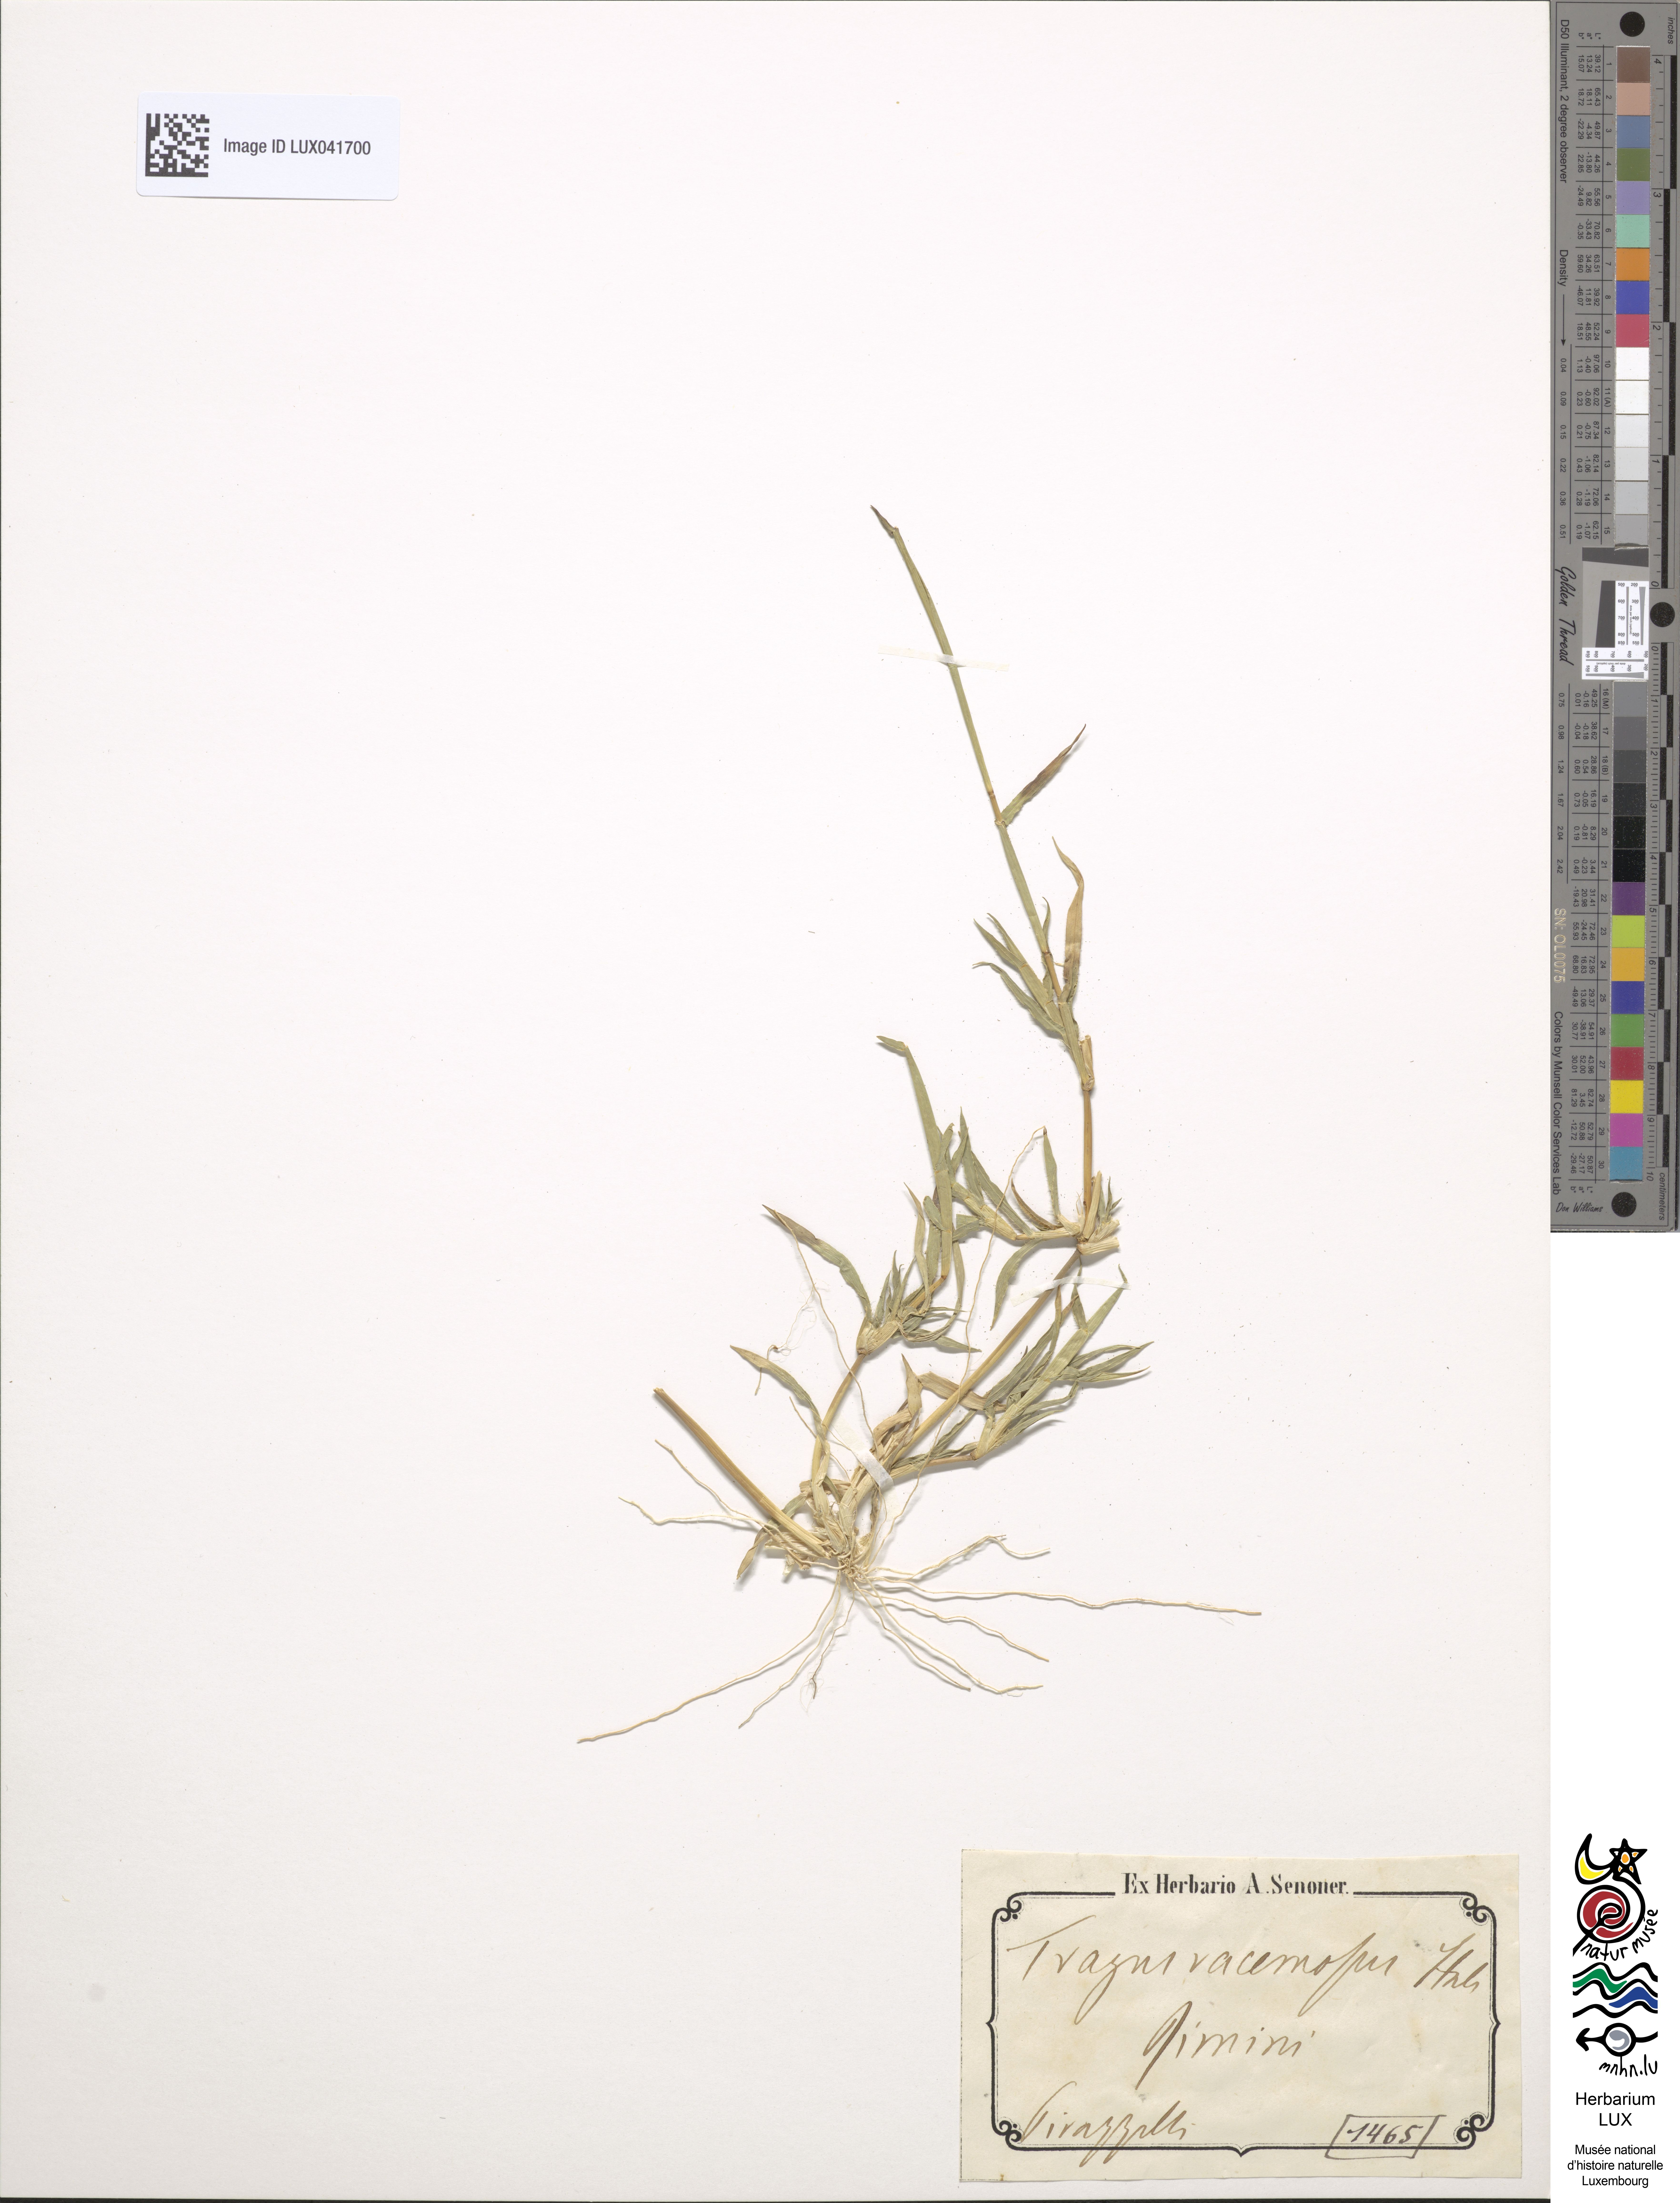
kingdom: Plantae
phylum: Tracheophyta
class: Liliopsida
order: Poales
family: Poaceae
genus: Tragus
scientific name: Tragus racemosus
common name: European bur-grass
